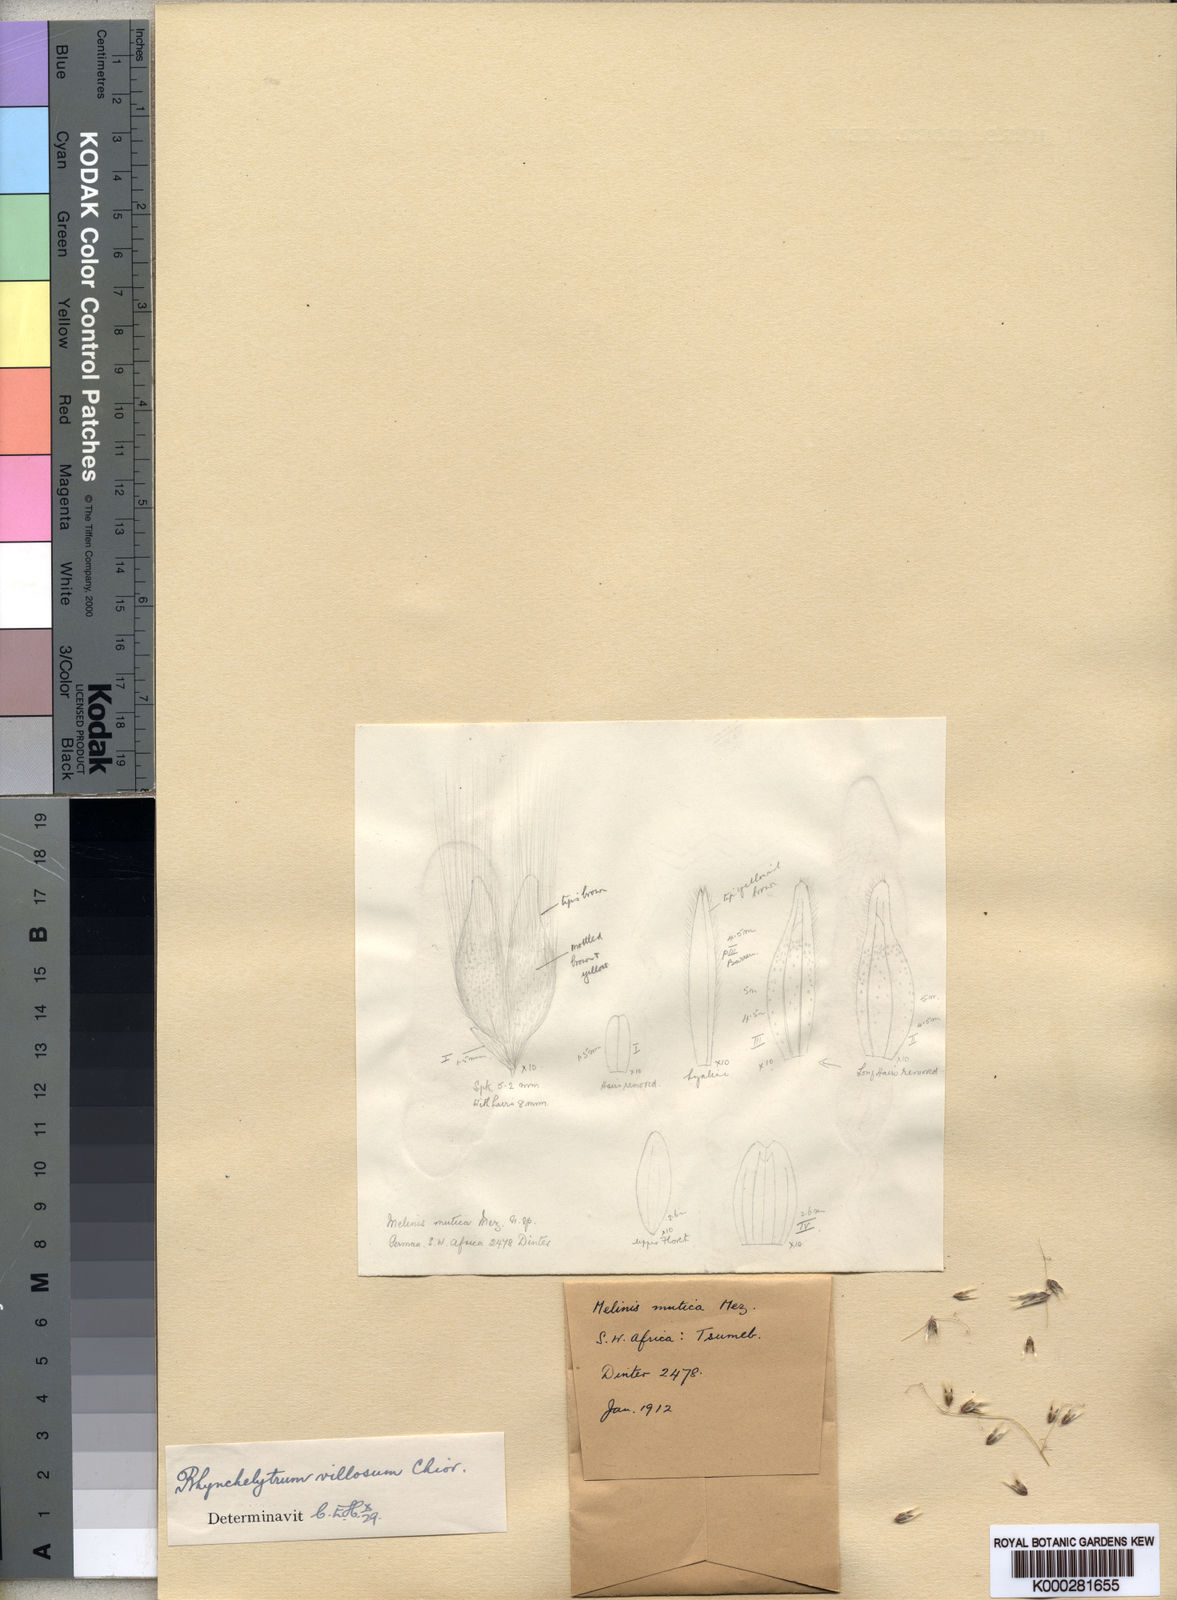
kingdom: Plantae
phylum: Tracheophyta
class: Liliopsida
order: Poales
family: Poaceae
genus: Melinis
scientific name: Melinis repens
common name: Rose natal grass
